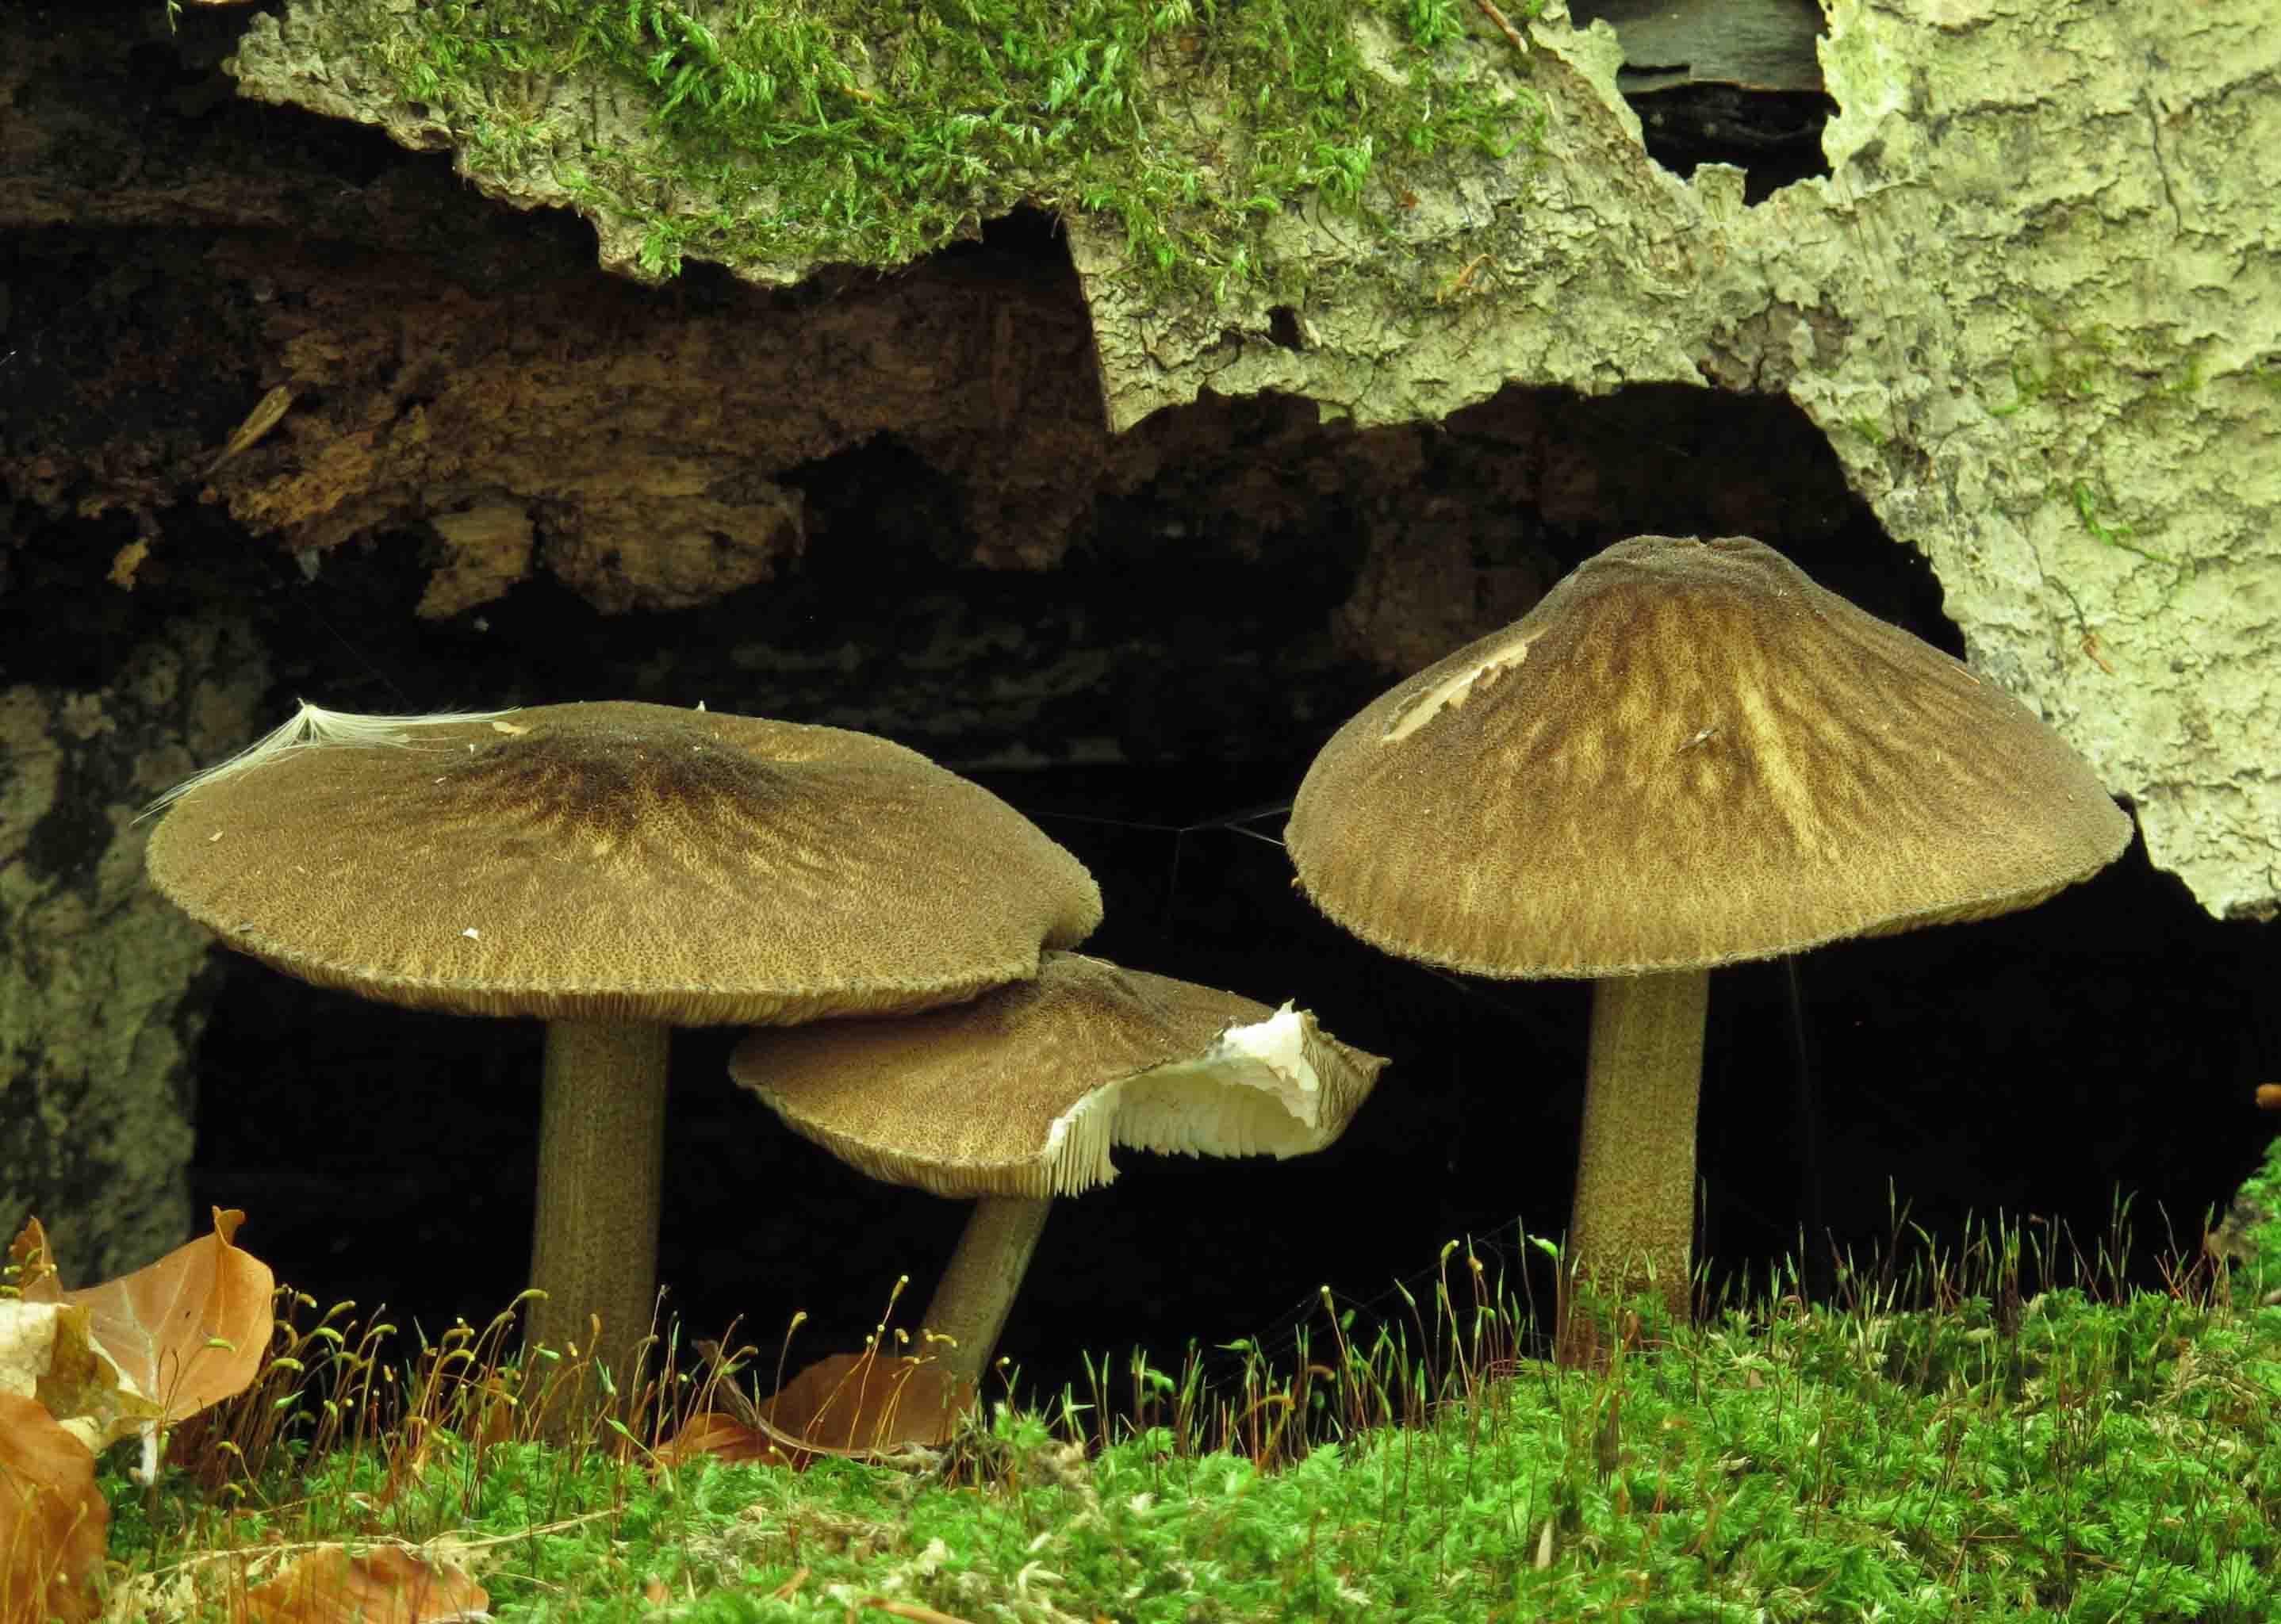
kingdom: Fungi
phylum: Basidiomycota
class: Agaricomycetes
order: Agaricales
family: Pluteaceae
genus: Pluteus
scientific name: Pluteus umbrosus
